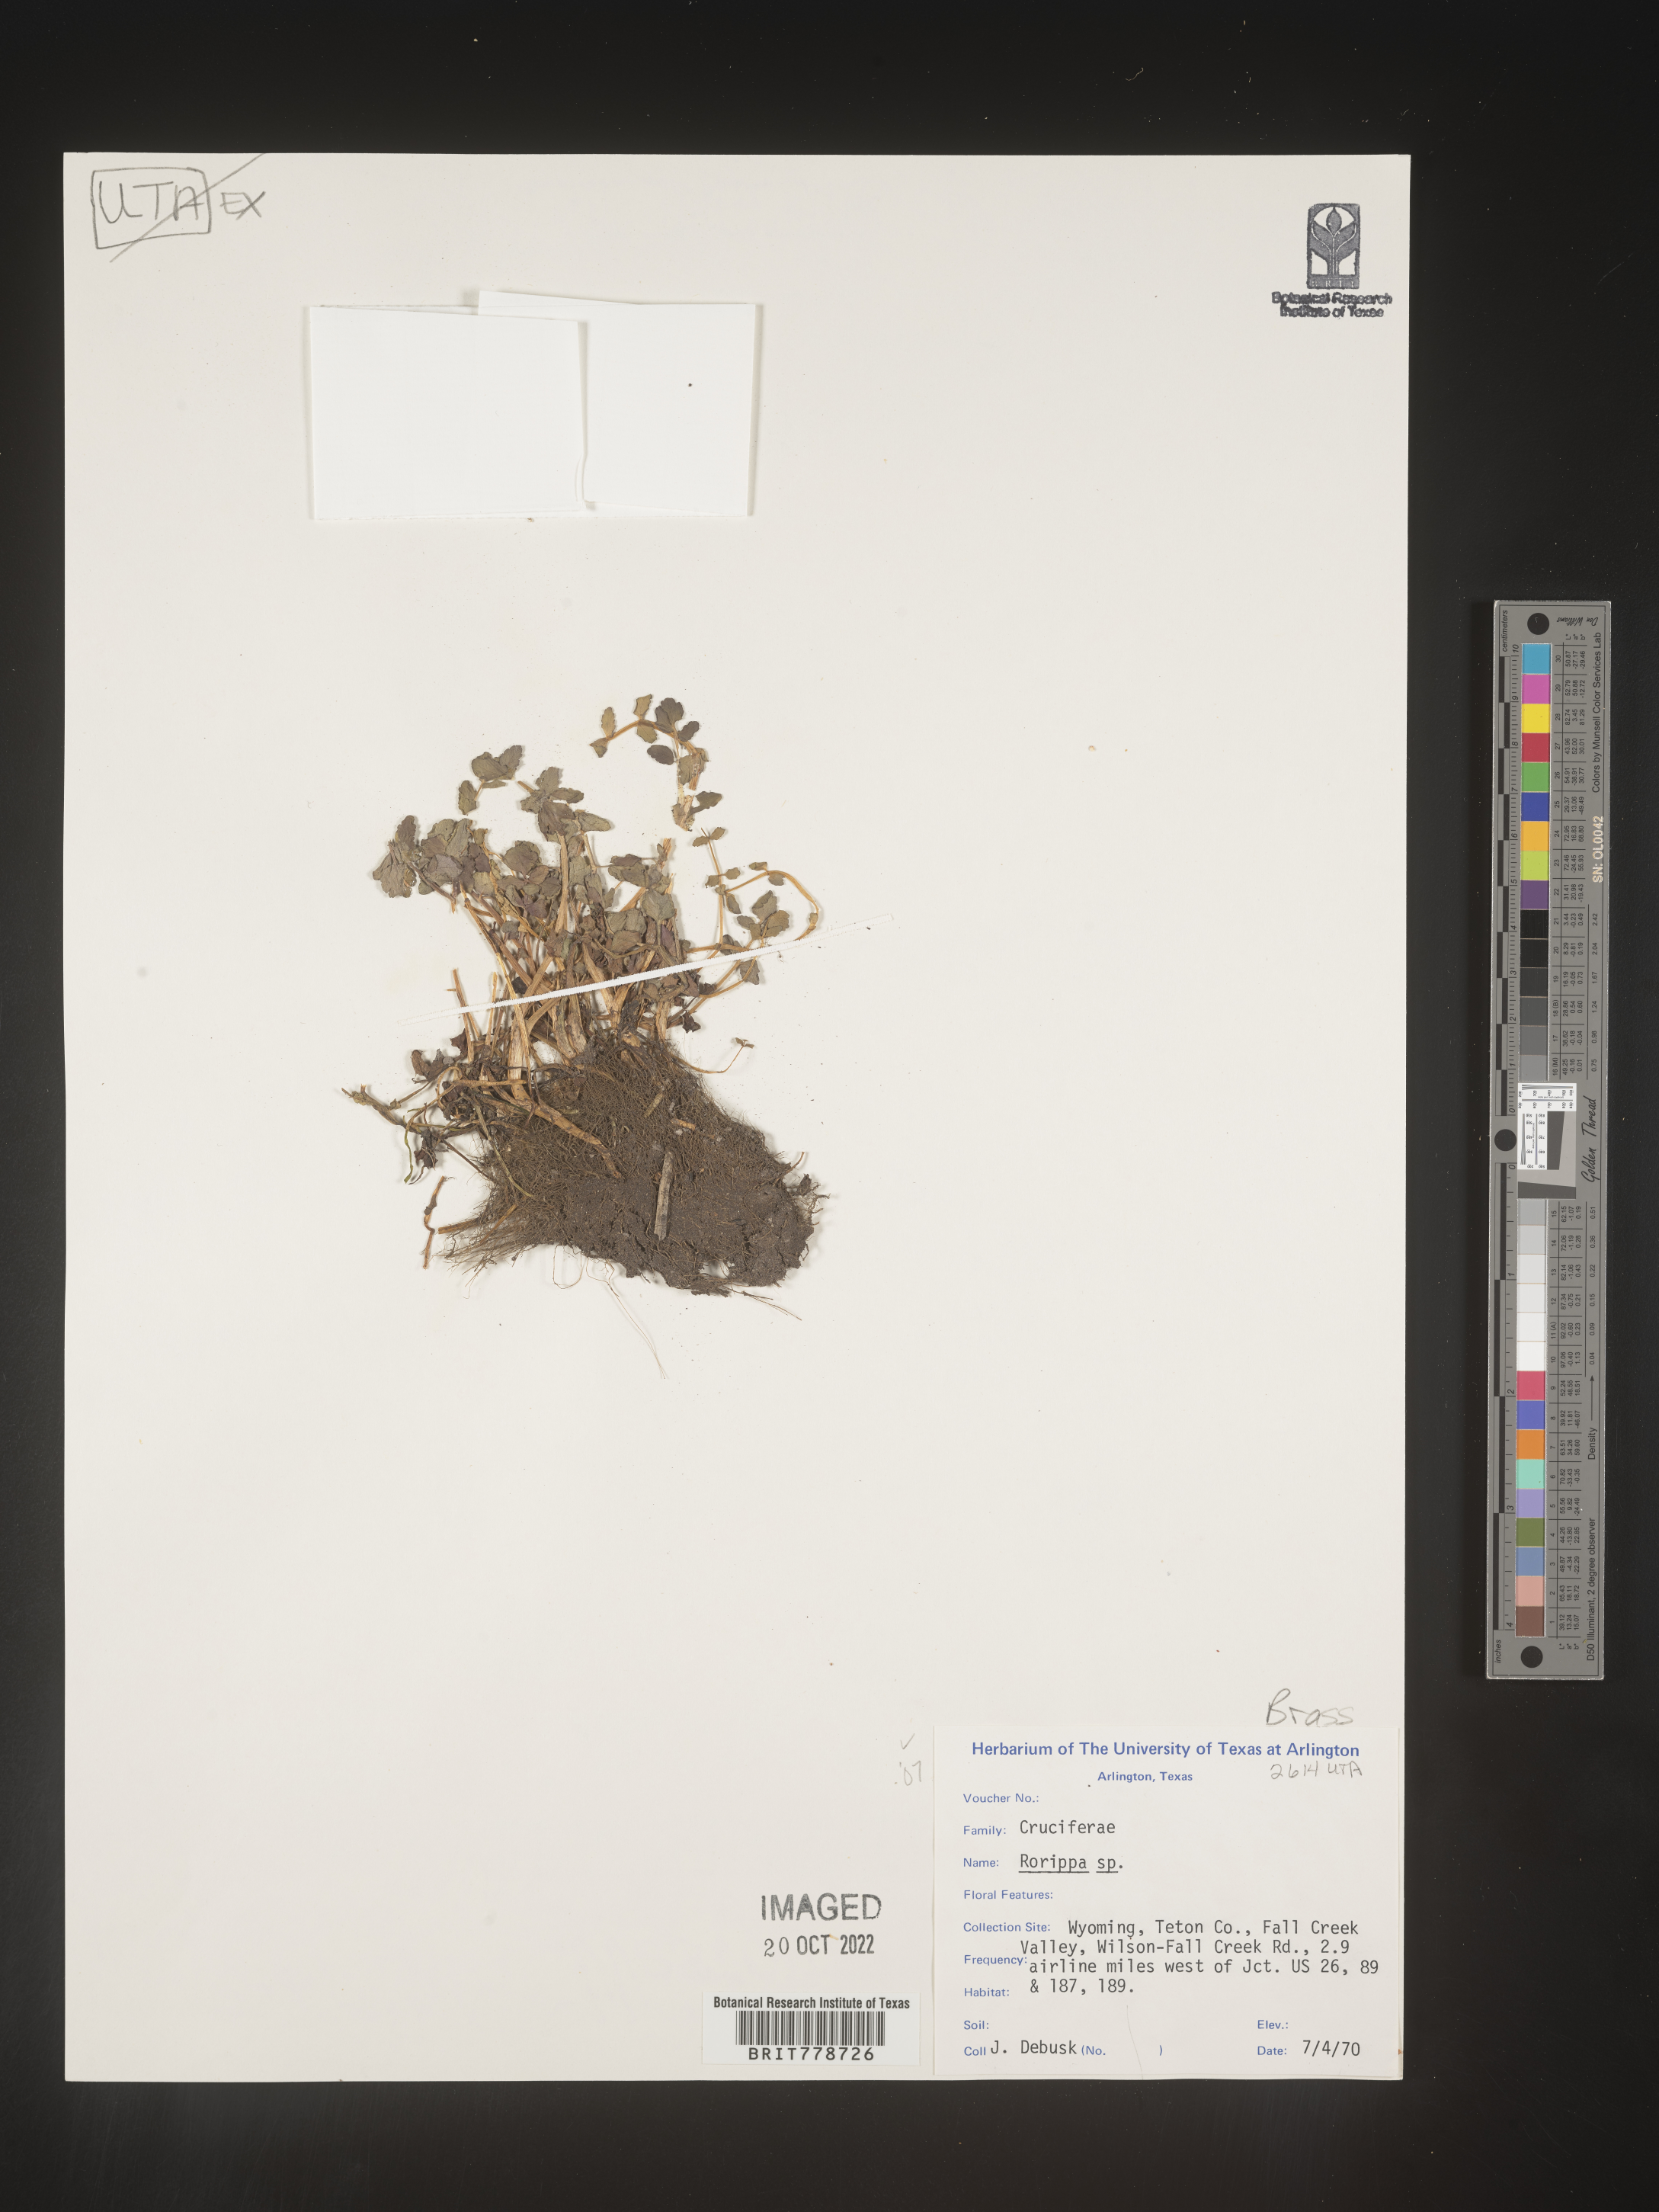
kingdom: Plantae
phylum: Tracheophyta
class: Magnoliopsida
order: Brassicales
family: Brassicaceae
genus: Rorippa
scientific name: Rorippa
